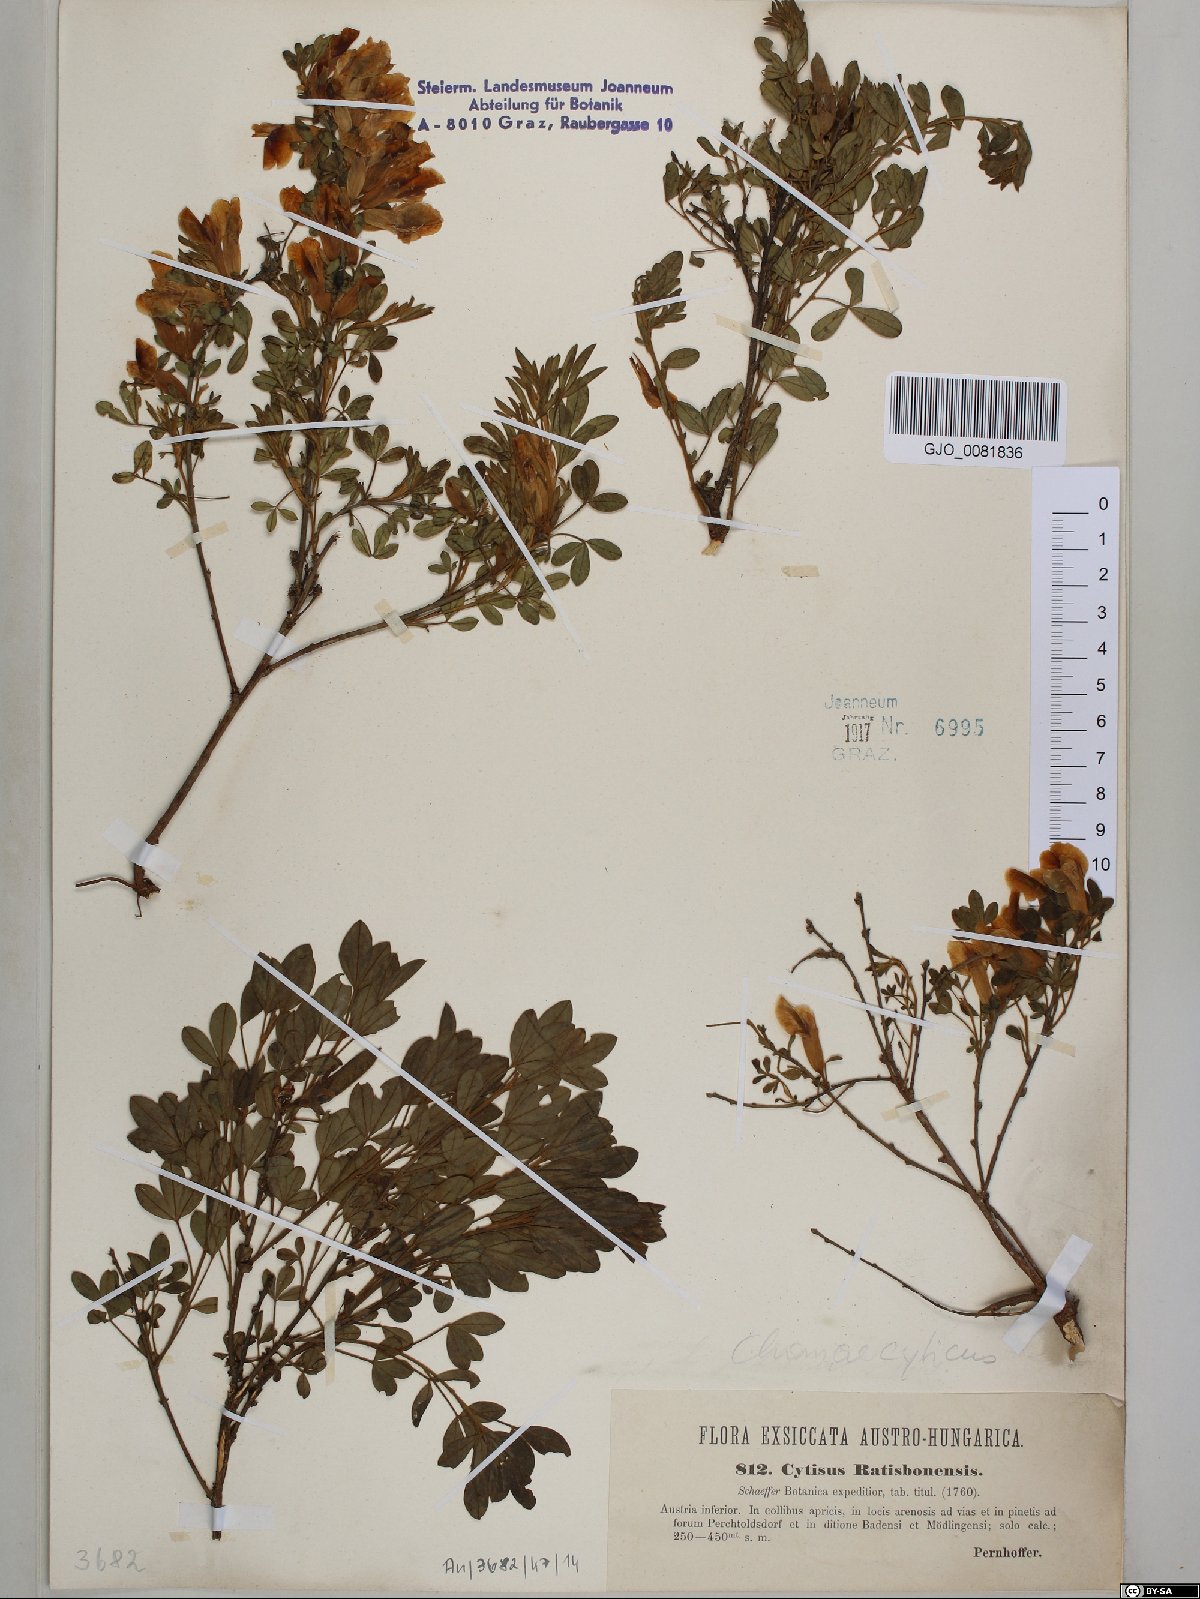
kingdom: Plantae
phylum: Tracheophyta
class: Magnoliopsida
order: Fabales
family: Fabaceae
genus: Chamaecytisus
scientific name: Chamaecytisus ratisbonensis
